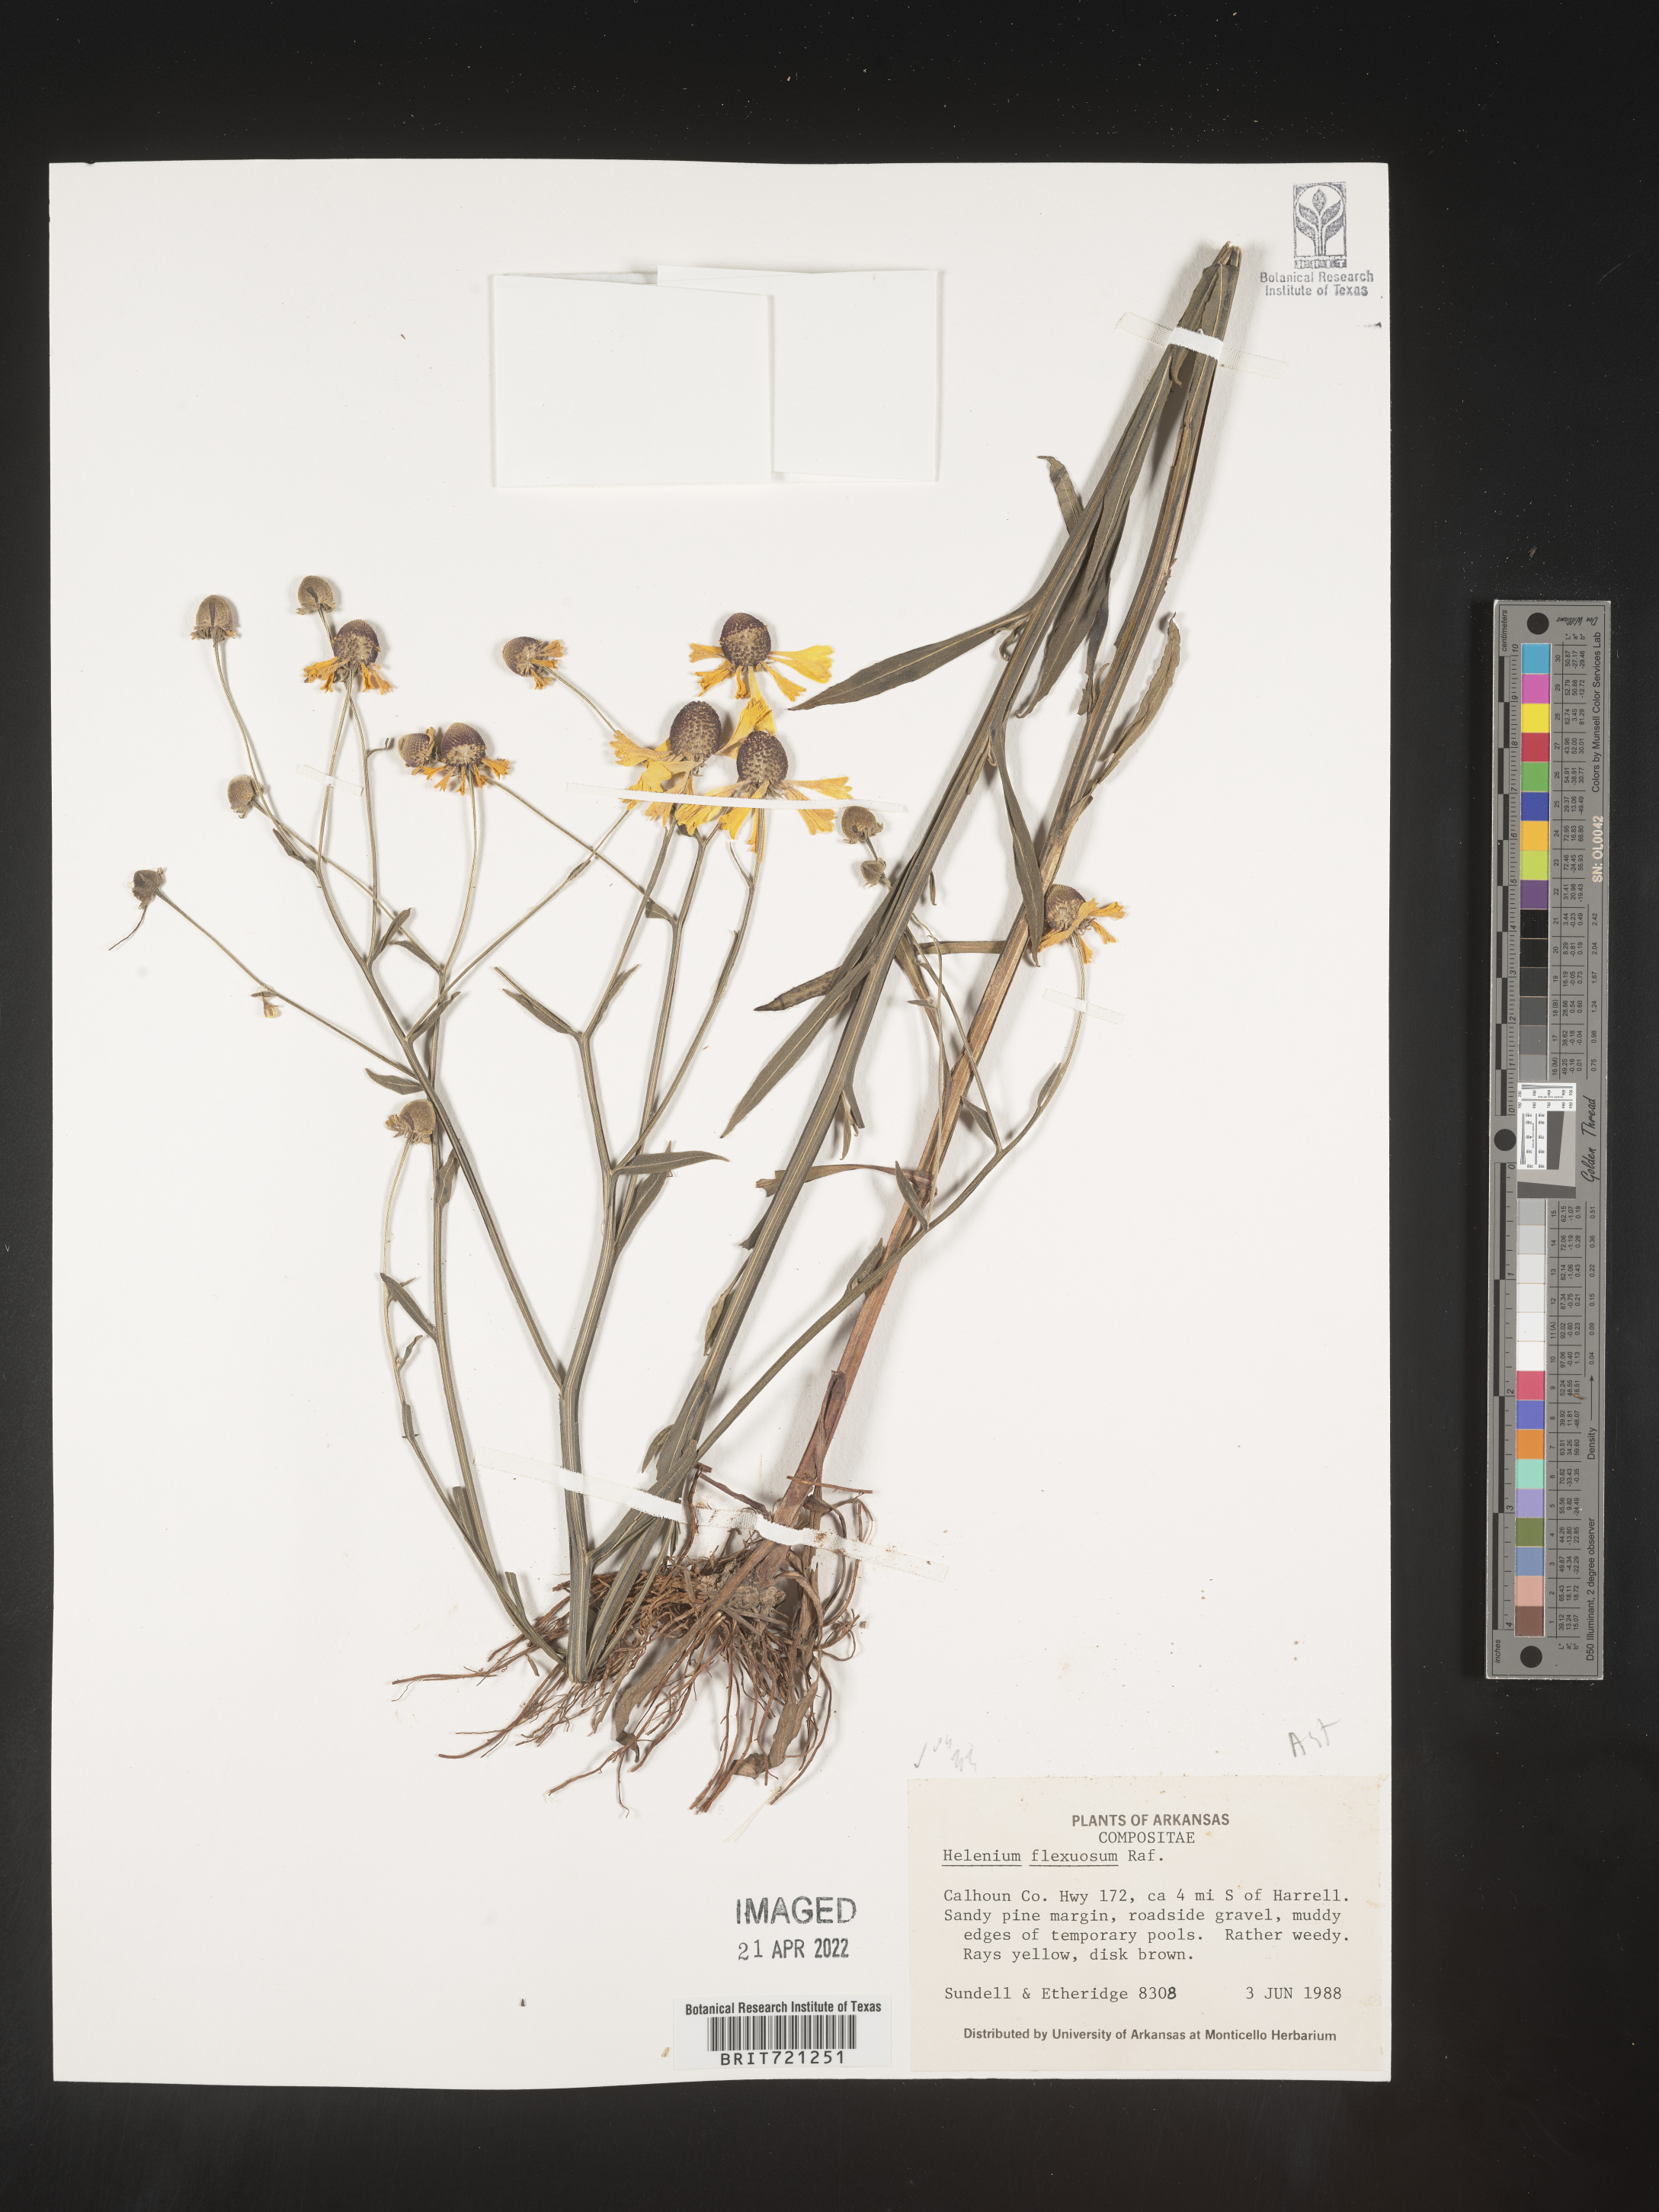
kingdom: Plantae
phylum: Tracheophyta
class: Magnoliopsida
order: Asterales
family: Asteraceae
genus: Helenium
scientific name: Helenium flexuosum
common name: Naked-flowered sneezeweed
